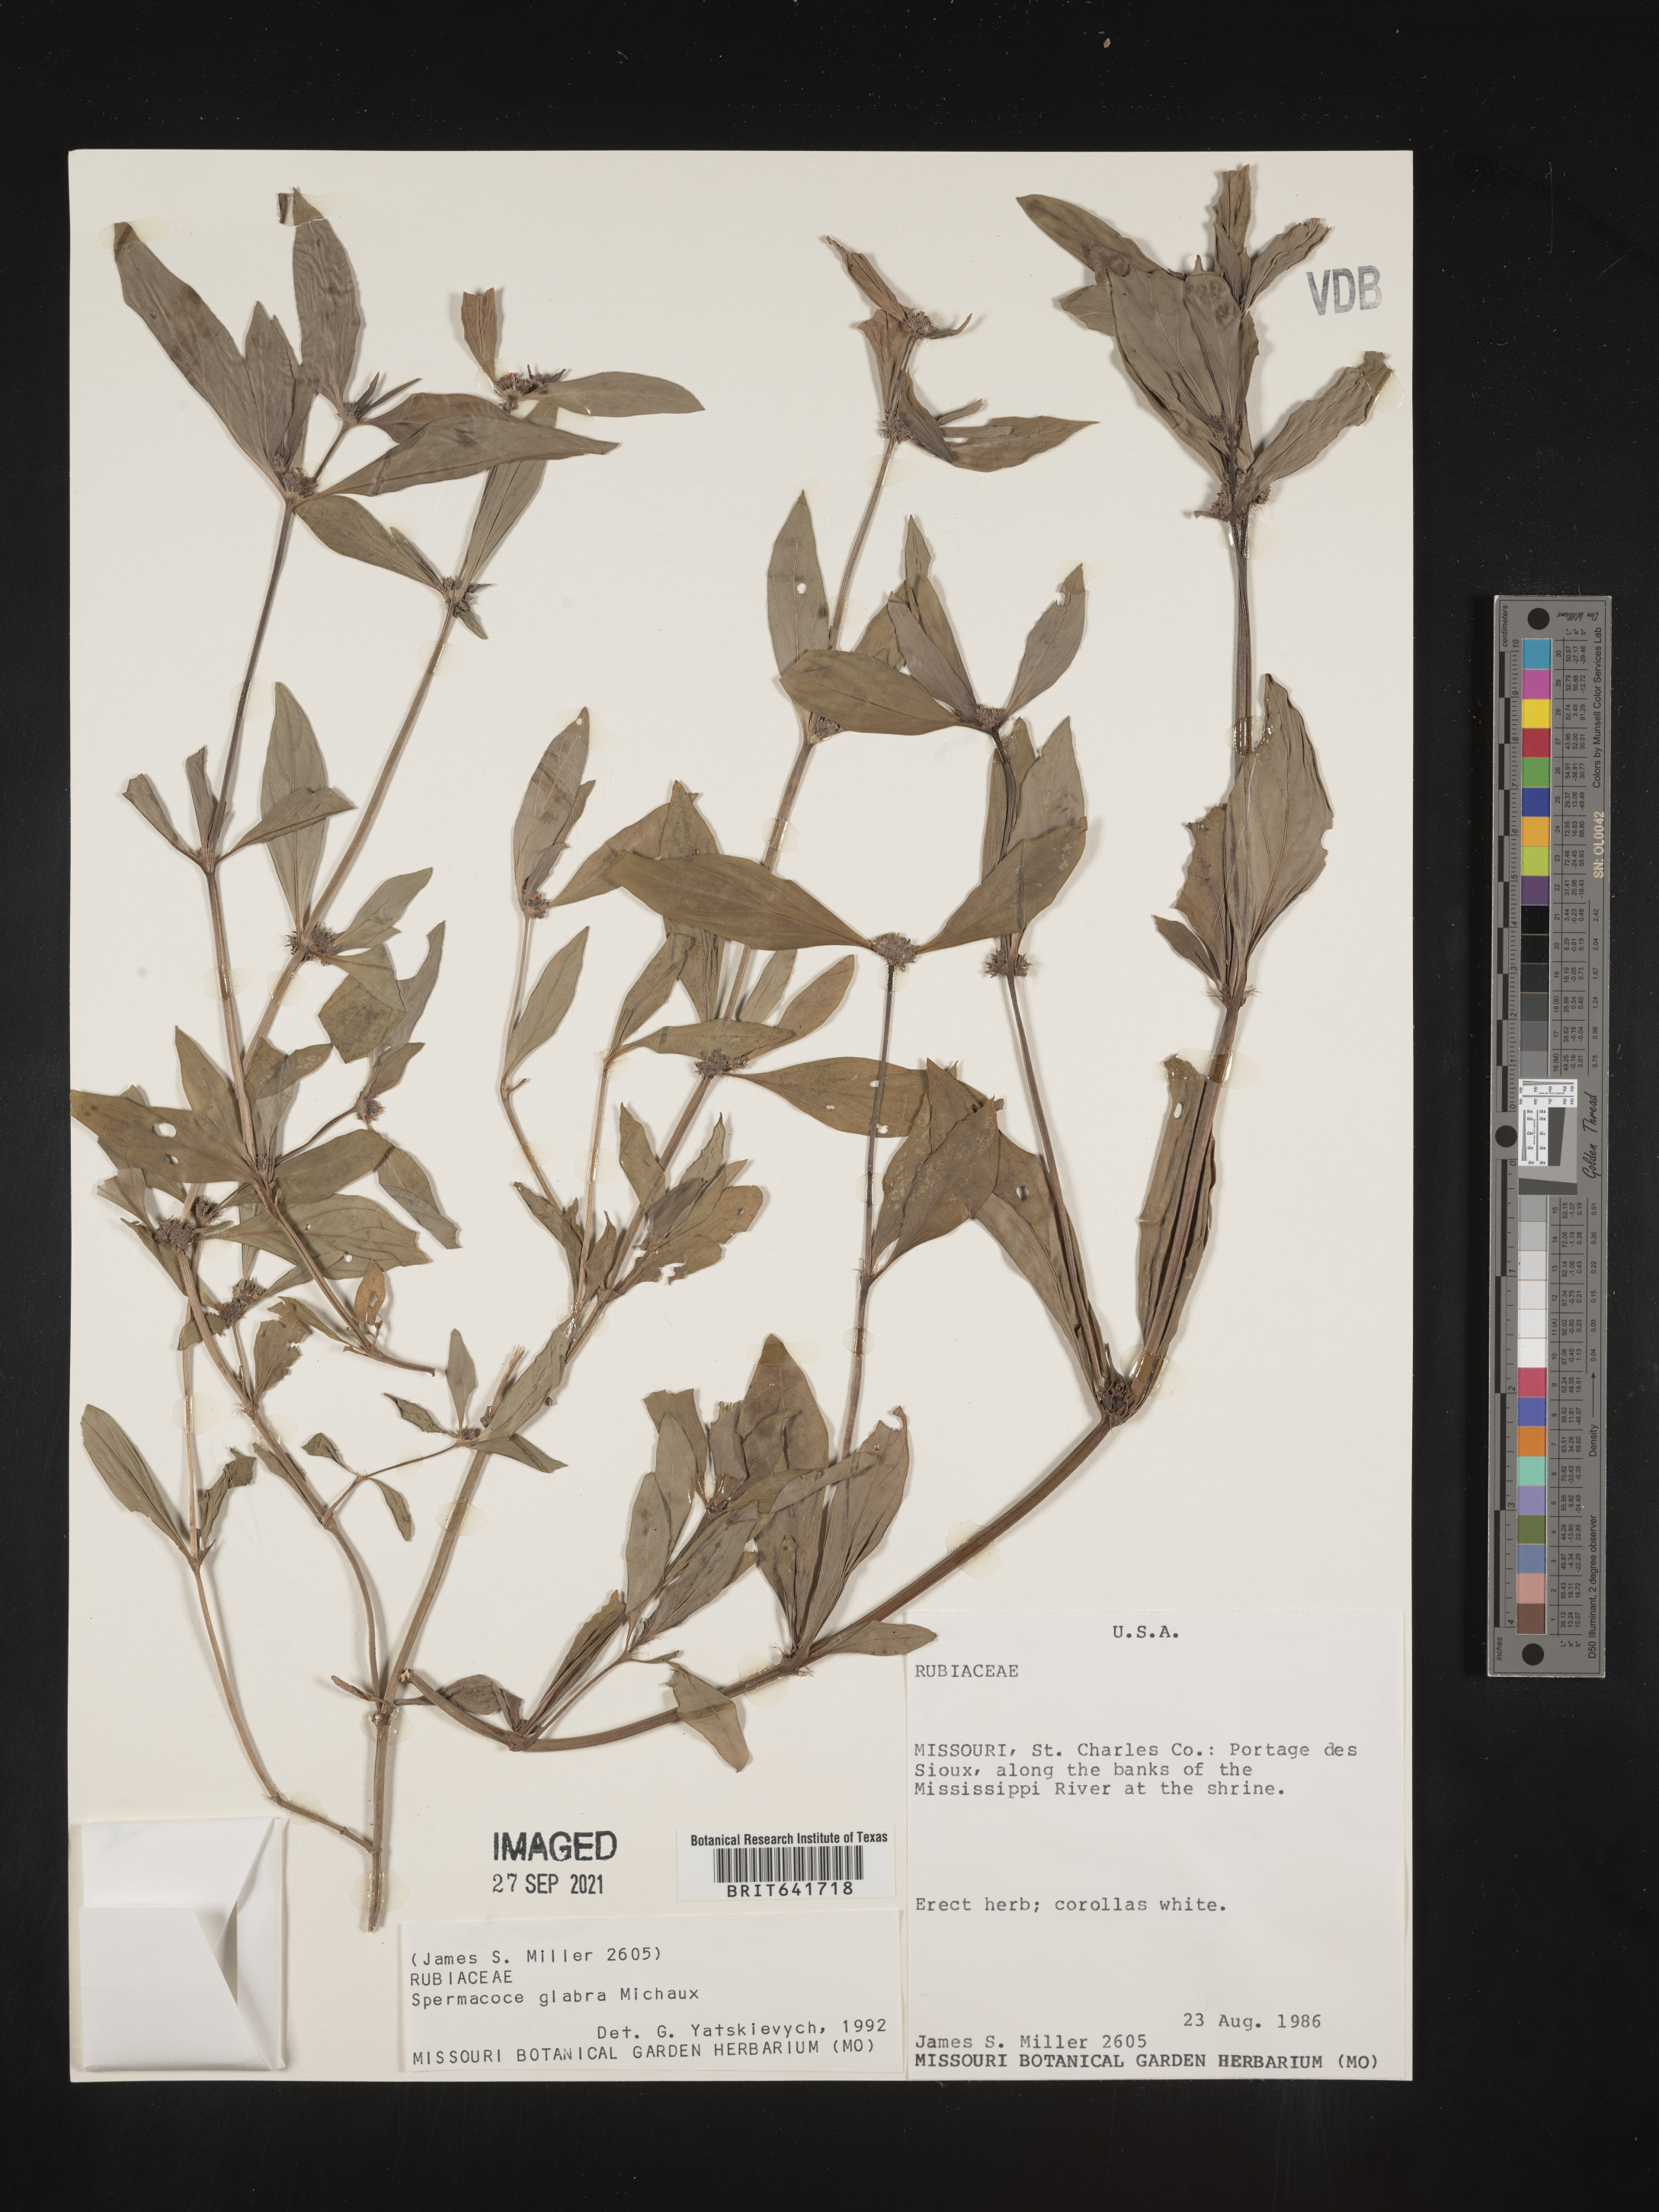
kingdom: Plantae
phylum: Tracheophyta
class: Magnoliopsida
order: Gentianales
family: Rubiaceae
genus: Spermacoce
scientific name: Spermacoce glabra
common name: Smooth buttonweed
